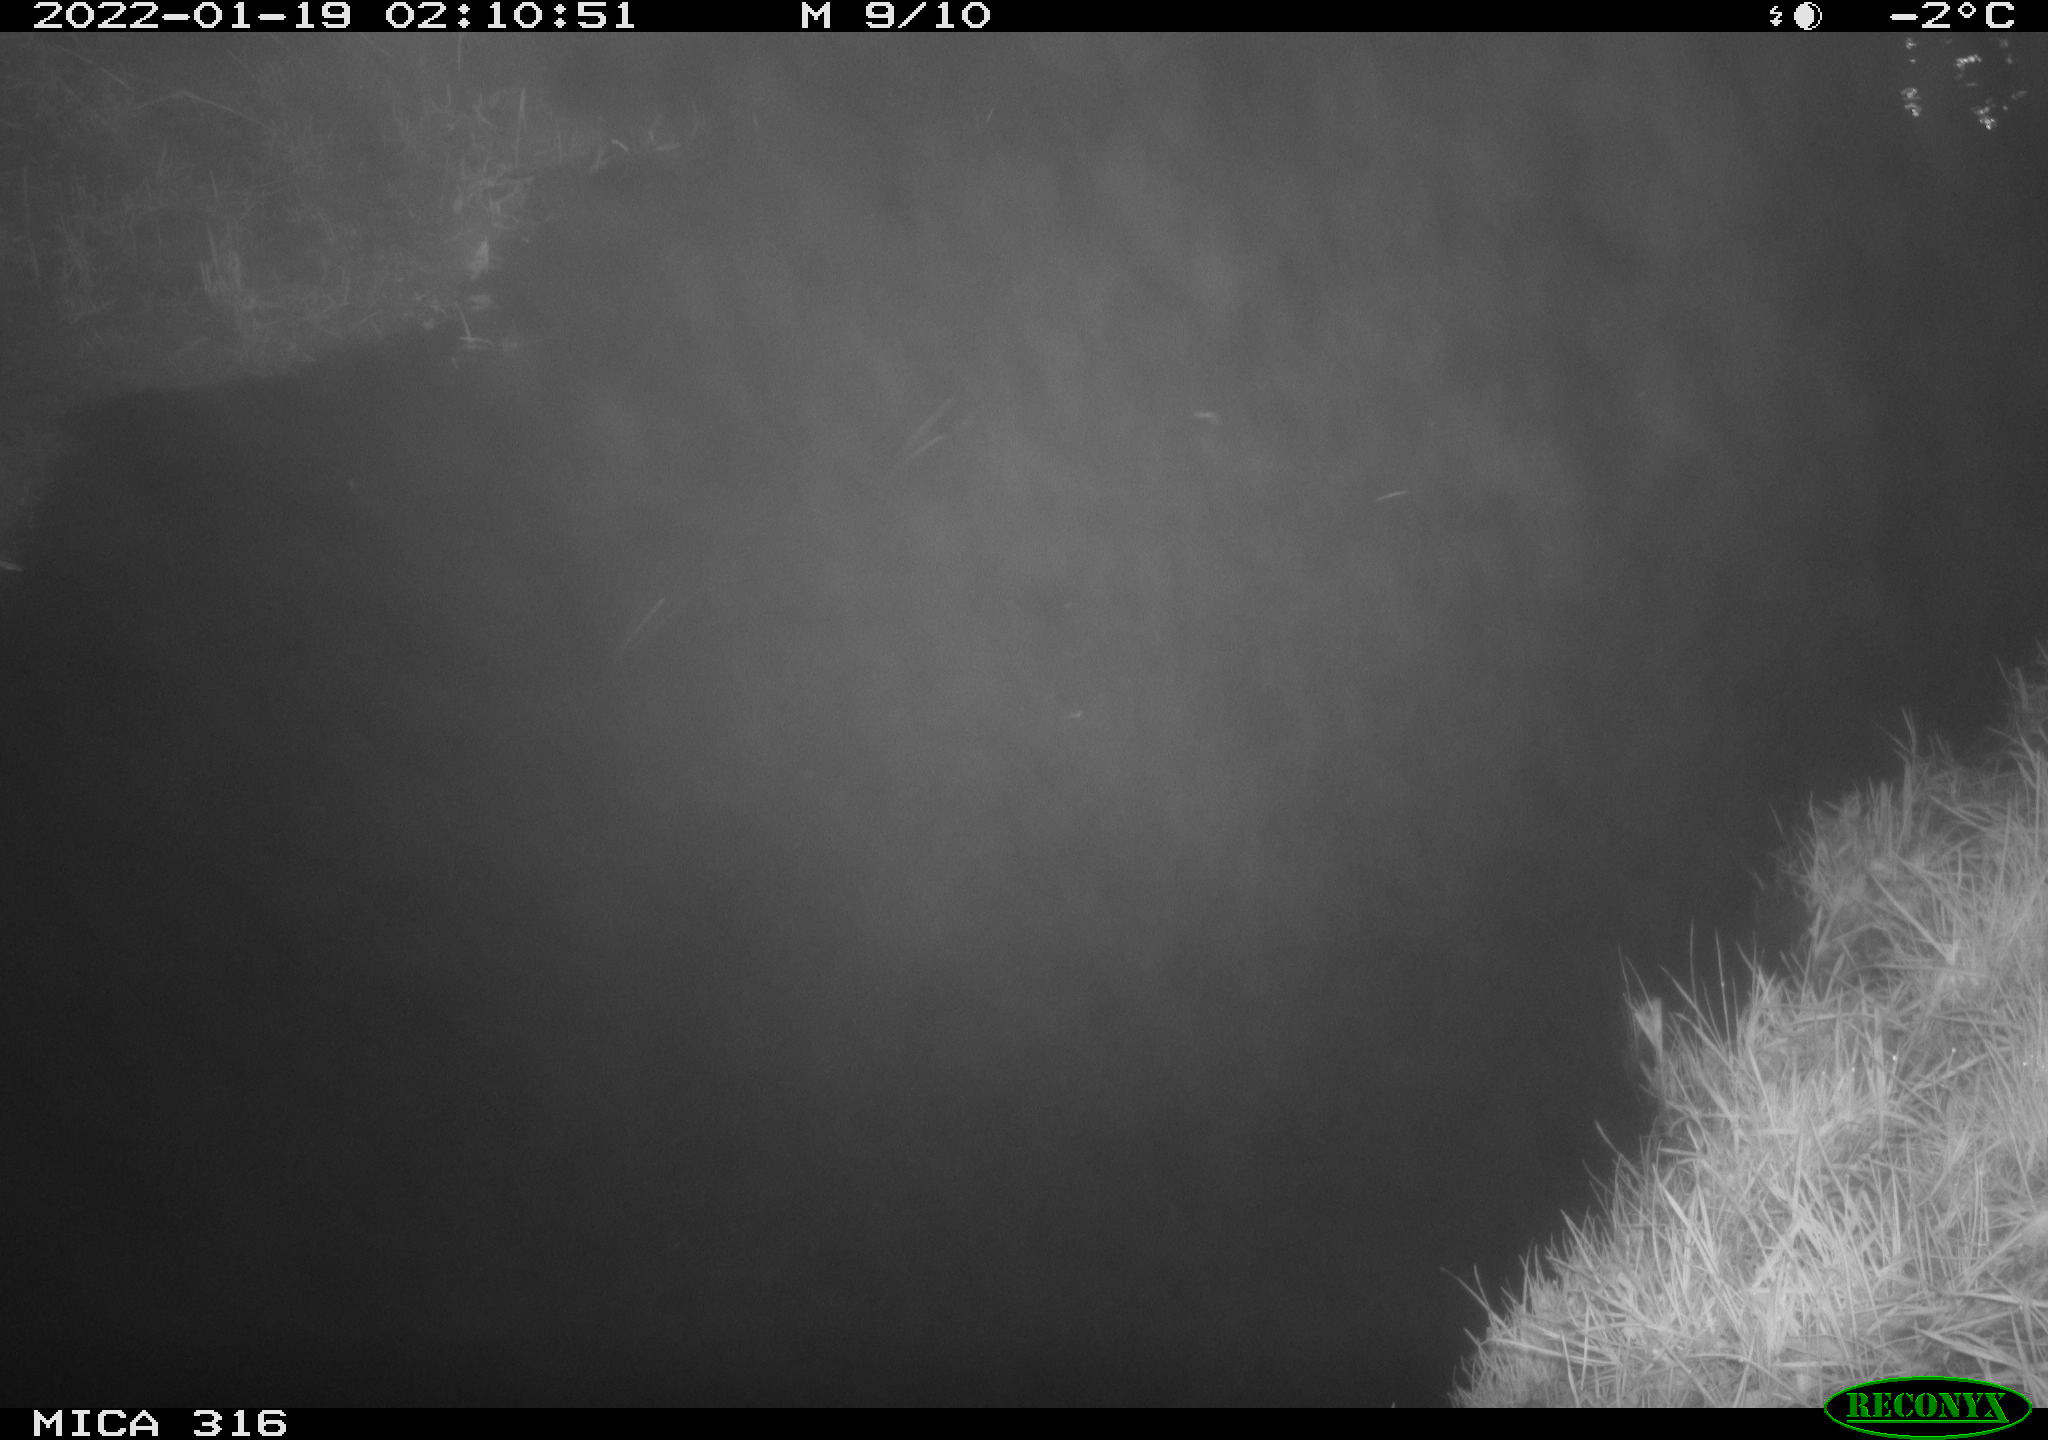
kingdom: Animalia
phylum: Chordata
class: Aves
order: Anseriformes
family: Anatidae
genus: Anas
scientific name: Anas
